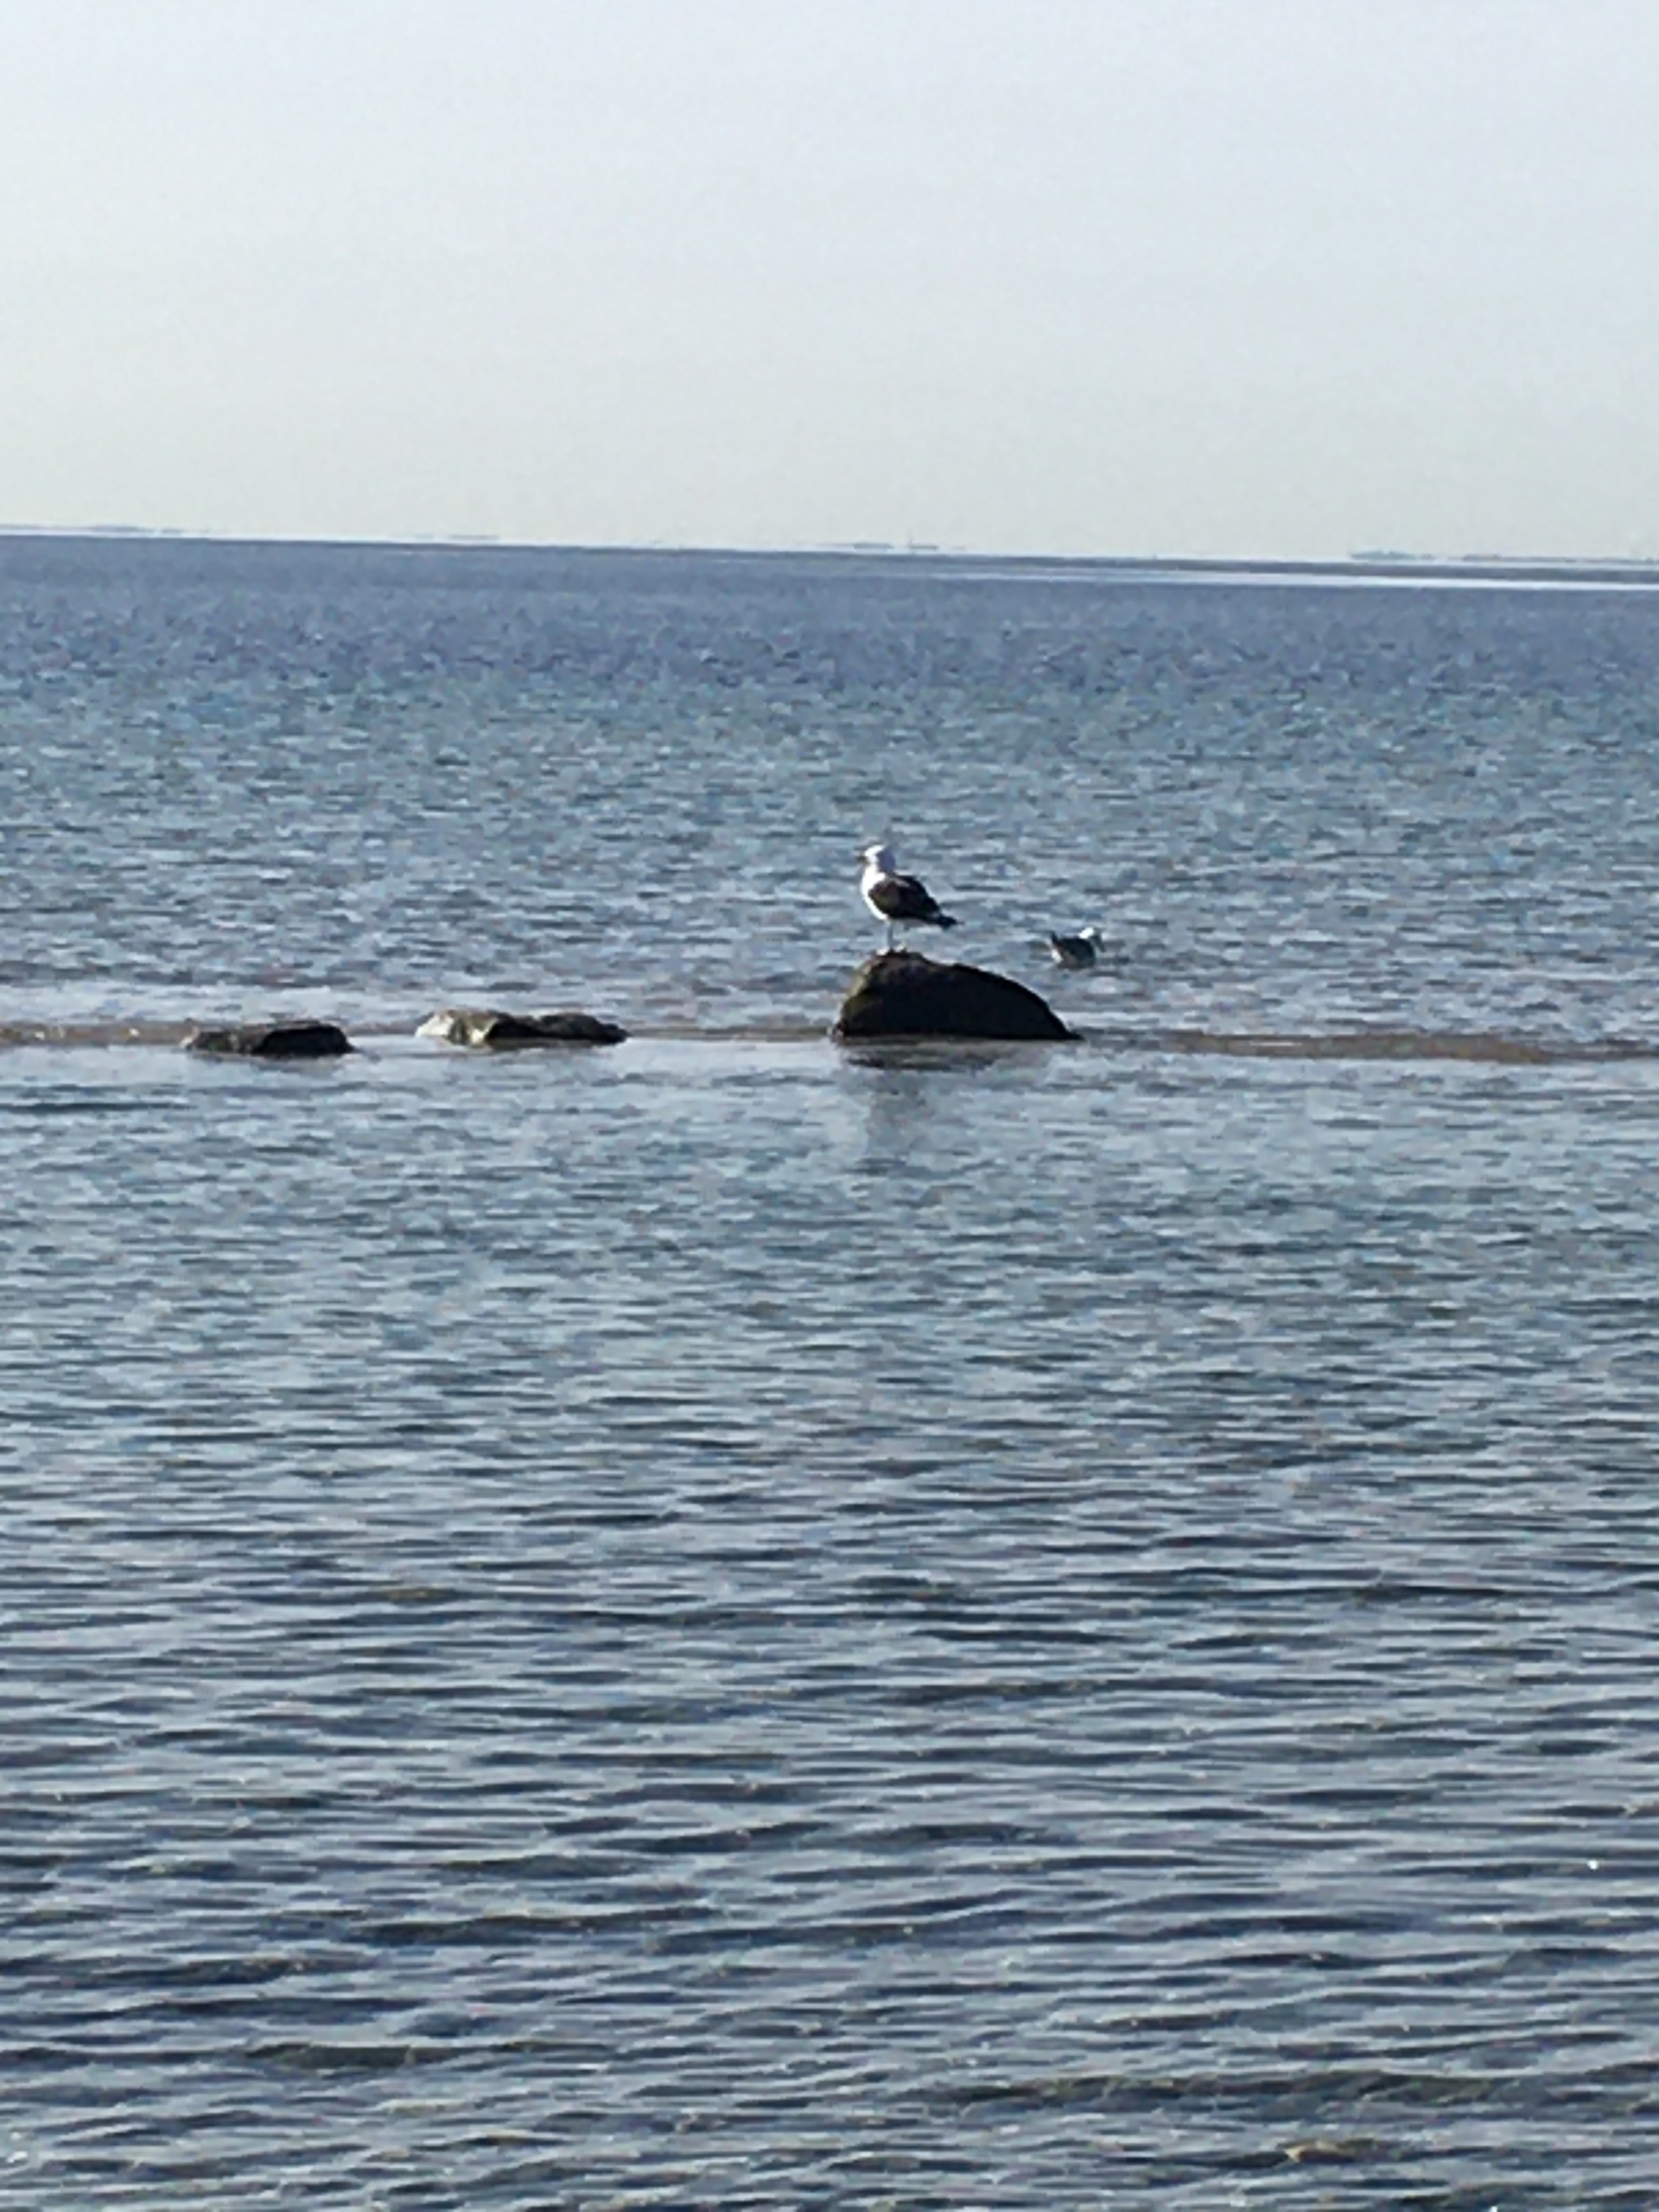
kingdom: Animalia
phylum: Chordata
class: Aves
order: Charadriiformes
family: Laridae
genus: Larus
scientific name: Larus marinus
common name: Svartbag
